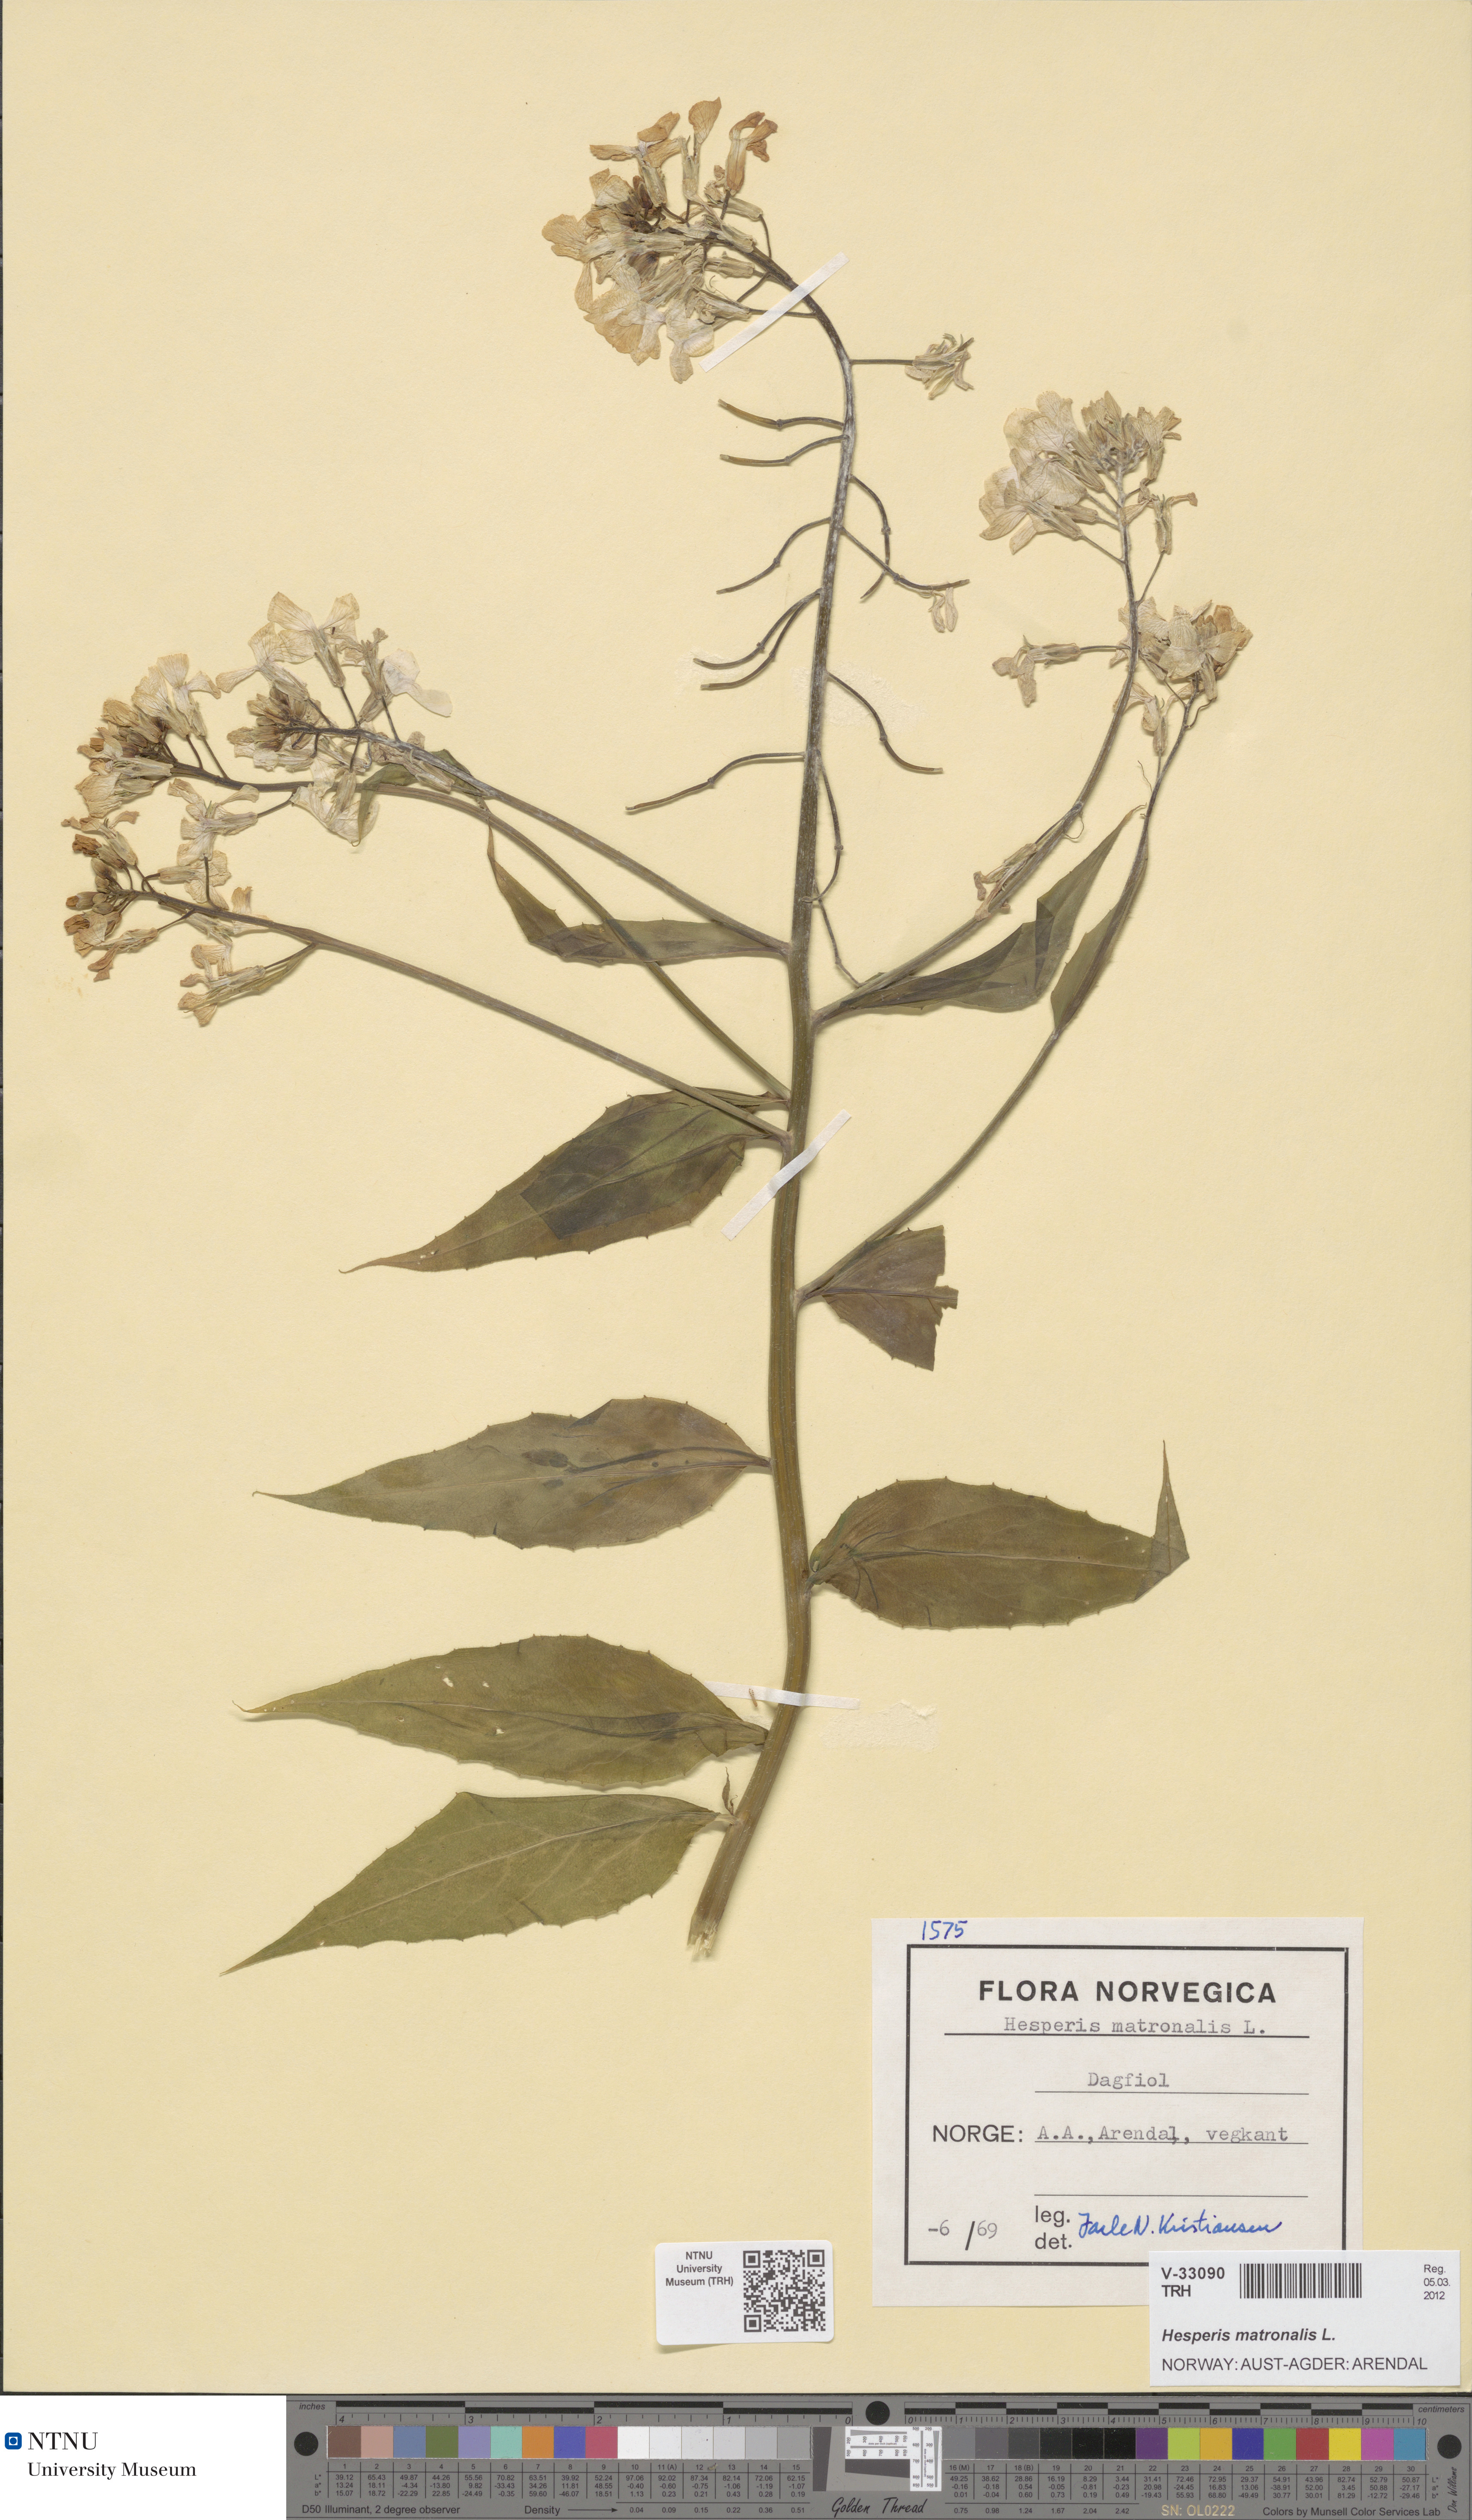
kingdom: Plantae
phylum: Tracheophyta
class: Magnoliopsida
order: Brassicales
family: Brassicaceae
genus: Hesperis
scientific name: Hesperis matronalis
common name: Dame's-violet
